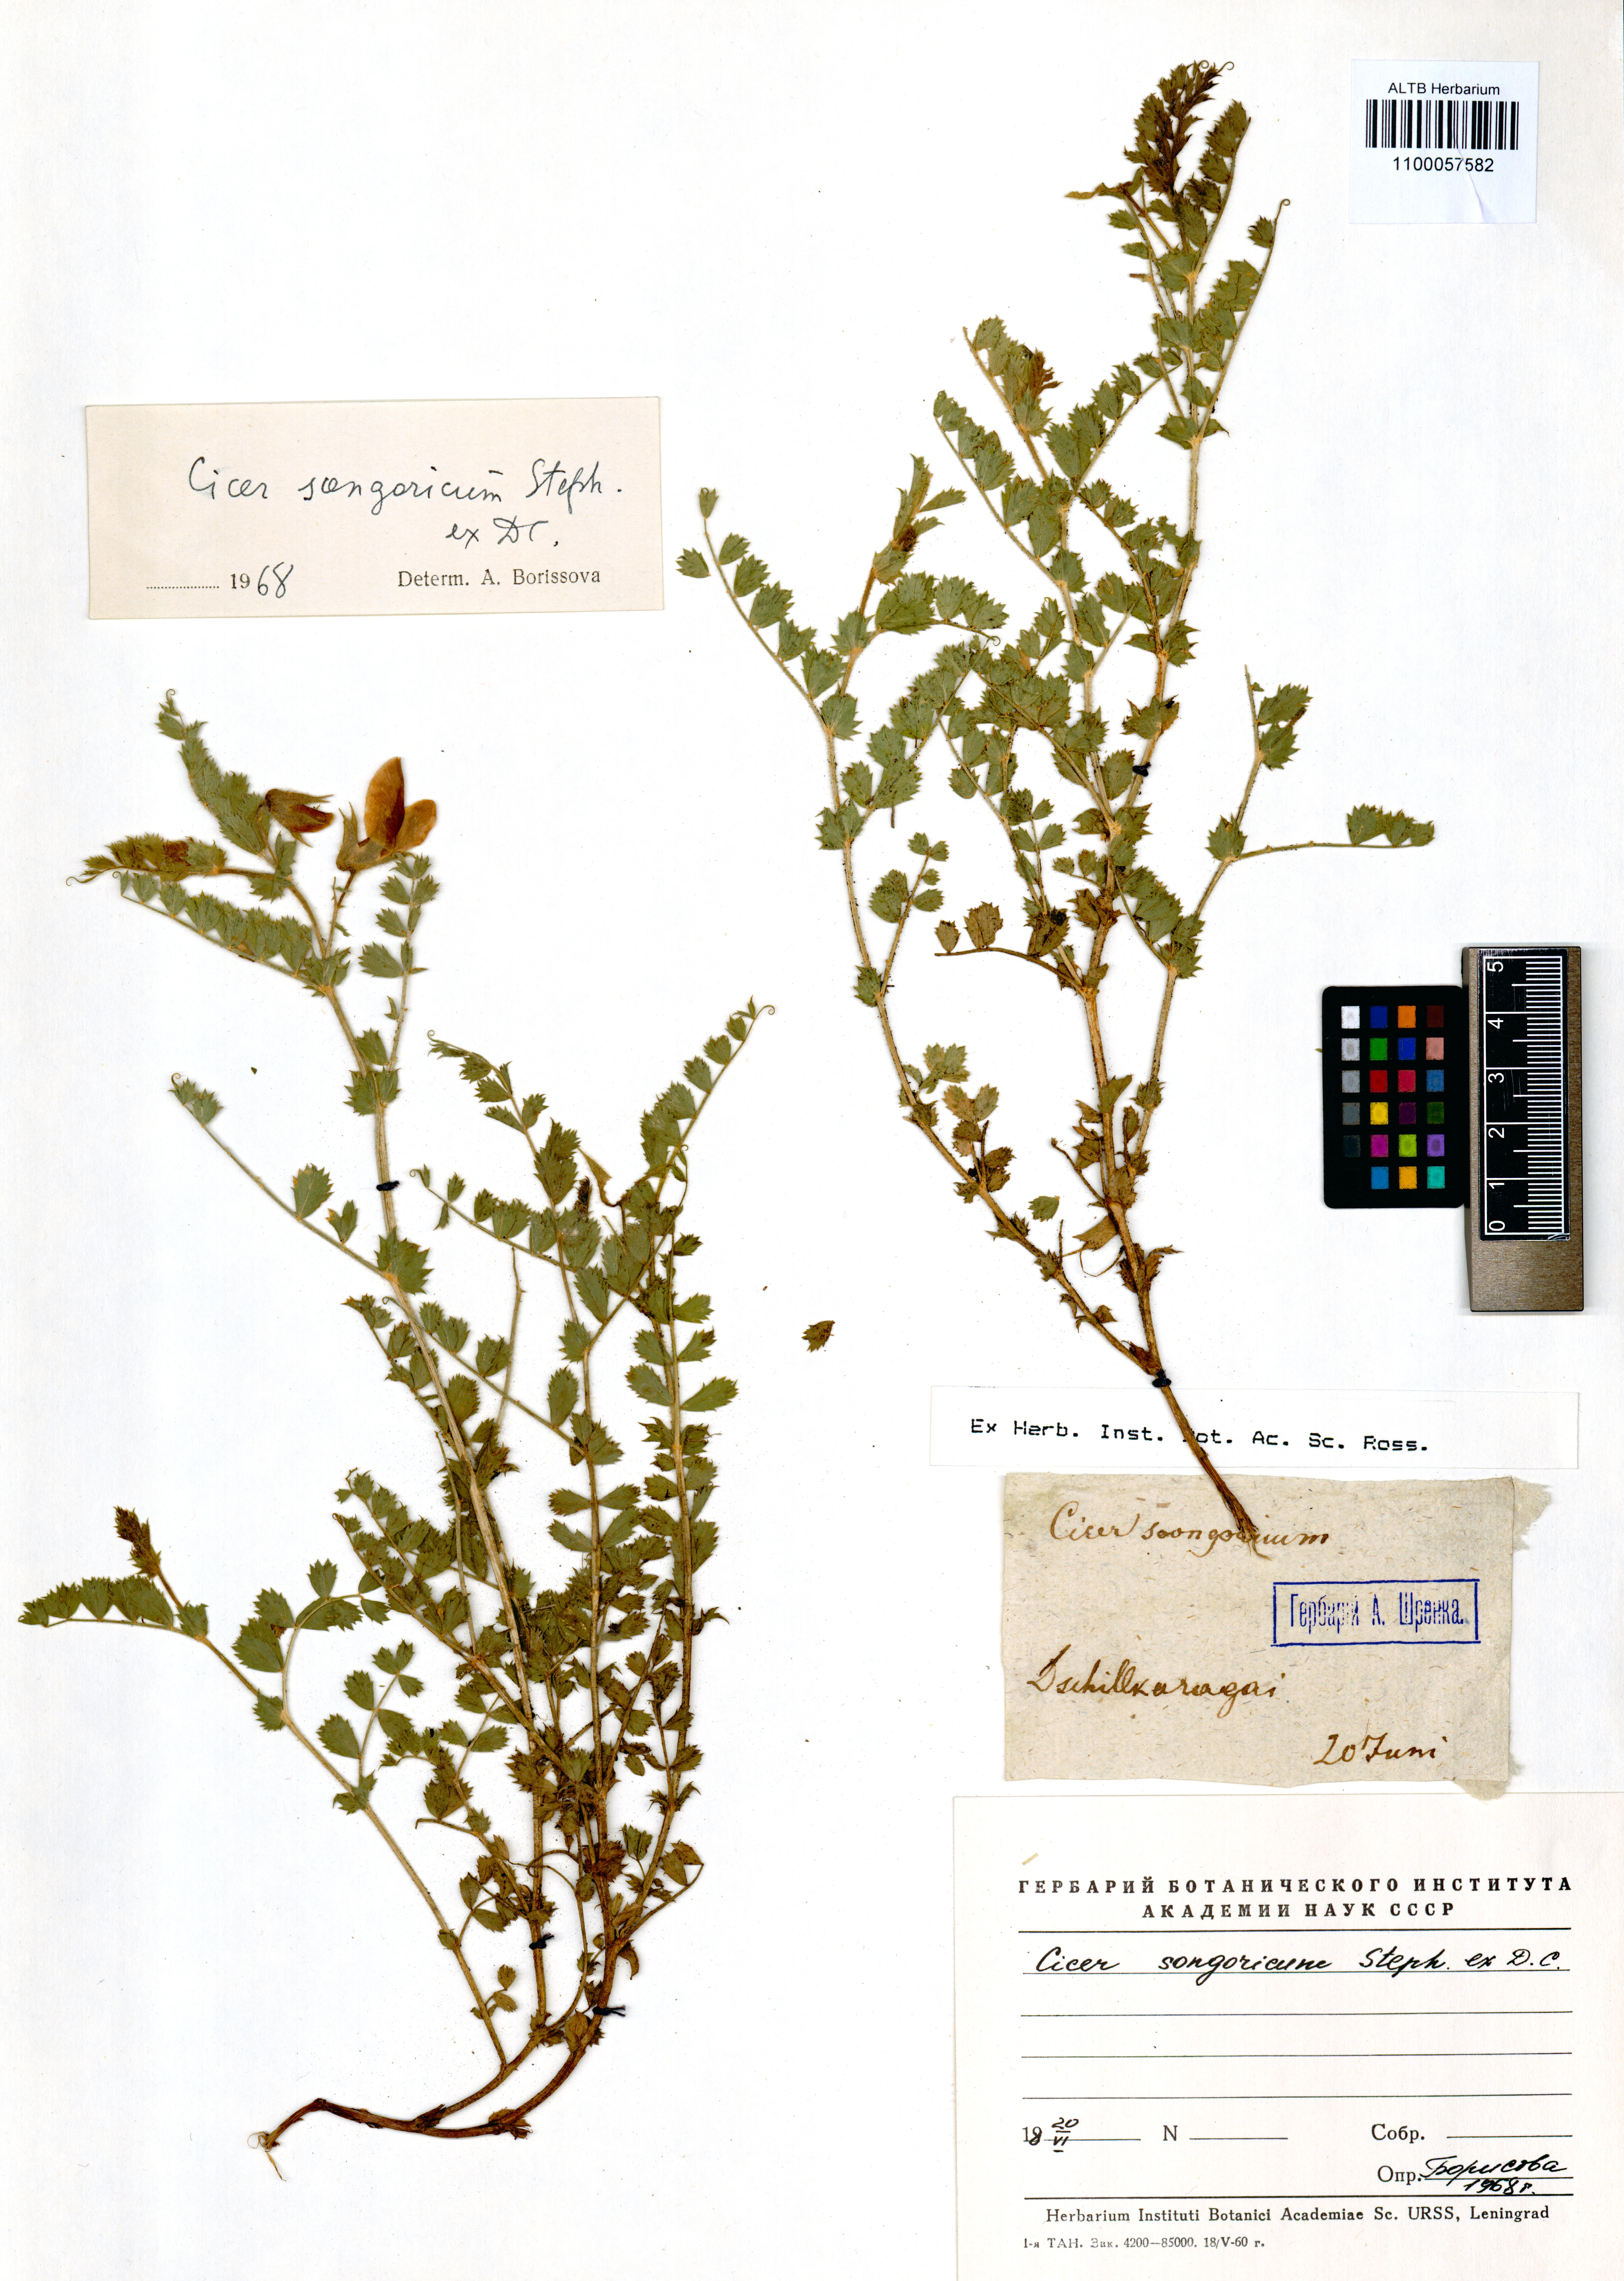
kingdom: Plantae
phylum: Tracheophyta
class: Magnoliopsida
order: Fabales
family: Fabaceae
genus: Cicer
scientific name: Cicer songaricum
